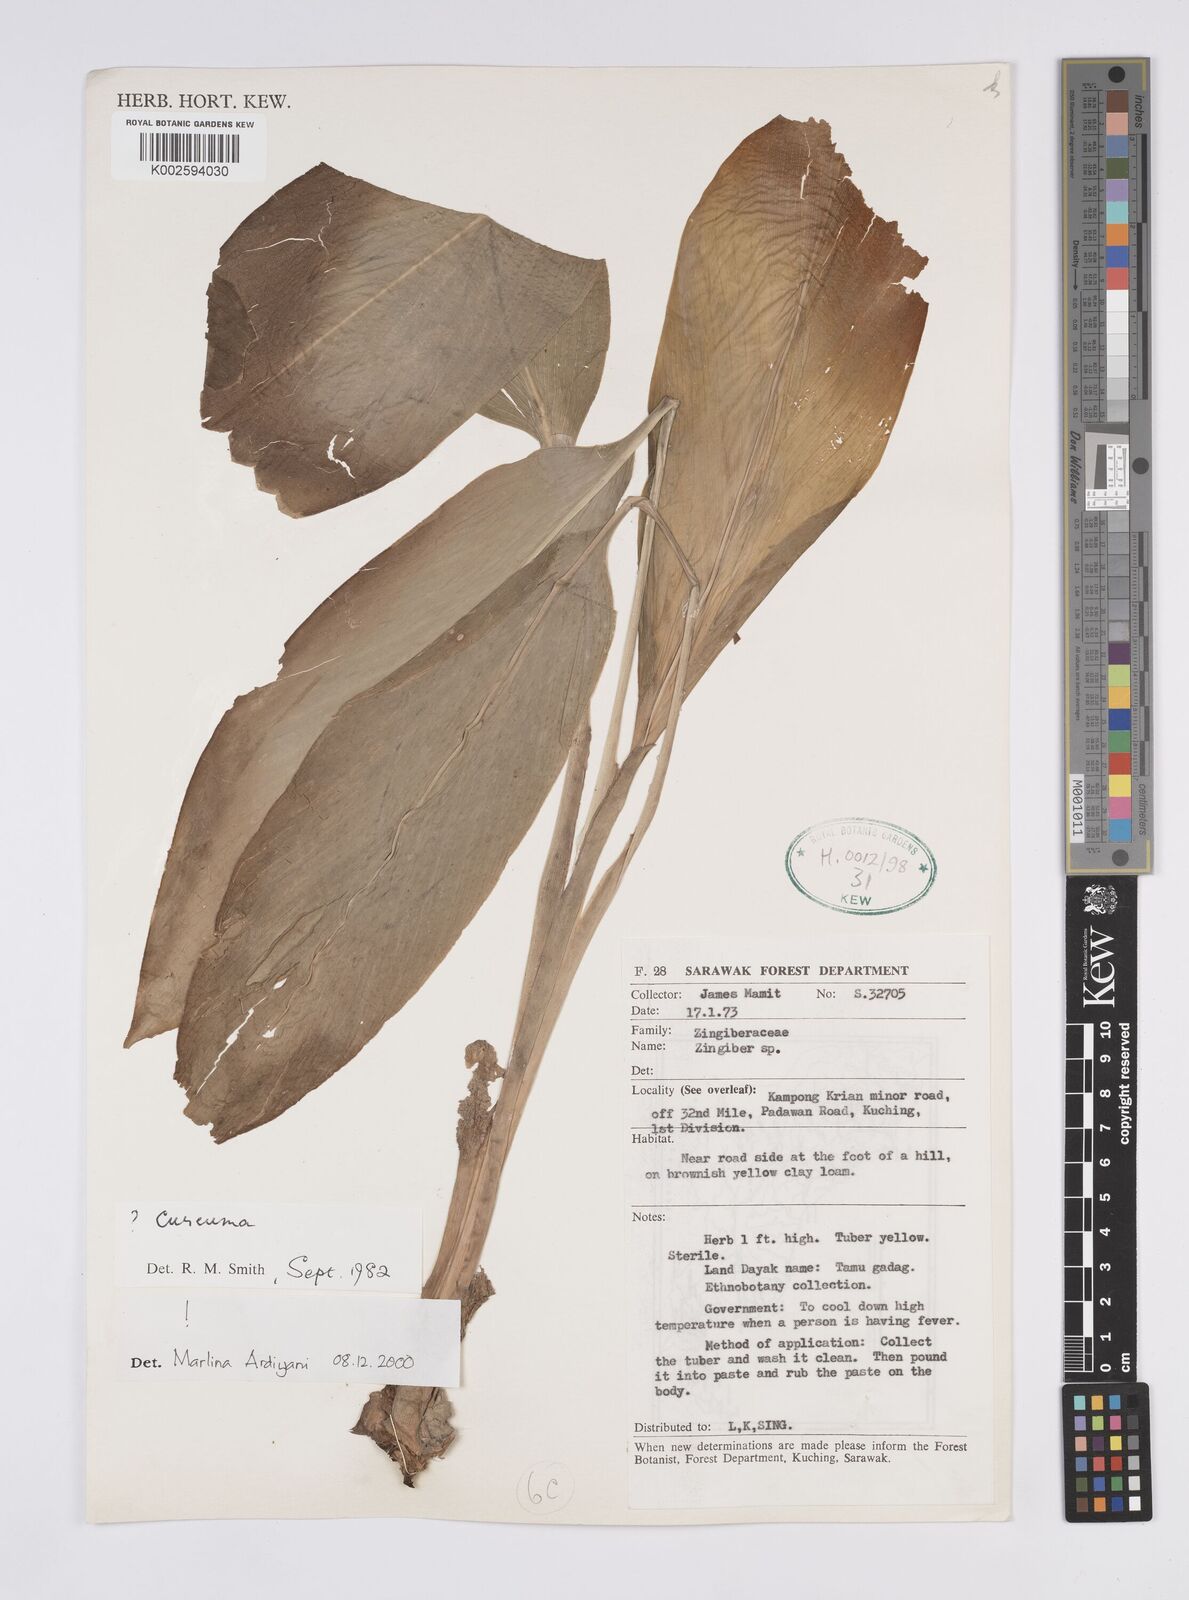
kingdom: Plantae
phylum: Tracheophyta
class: Liliopsida
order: Zingiberales
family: Zingiberaceae
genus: Curcuma
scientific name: Curcuma
